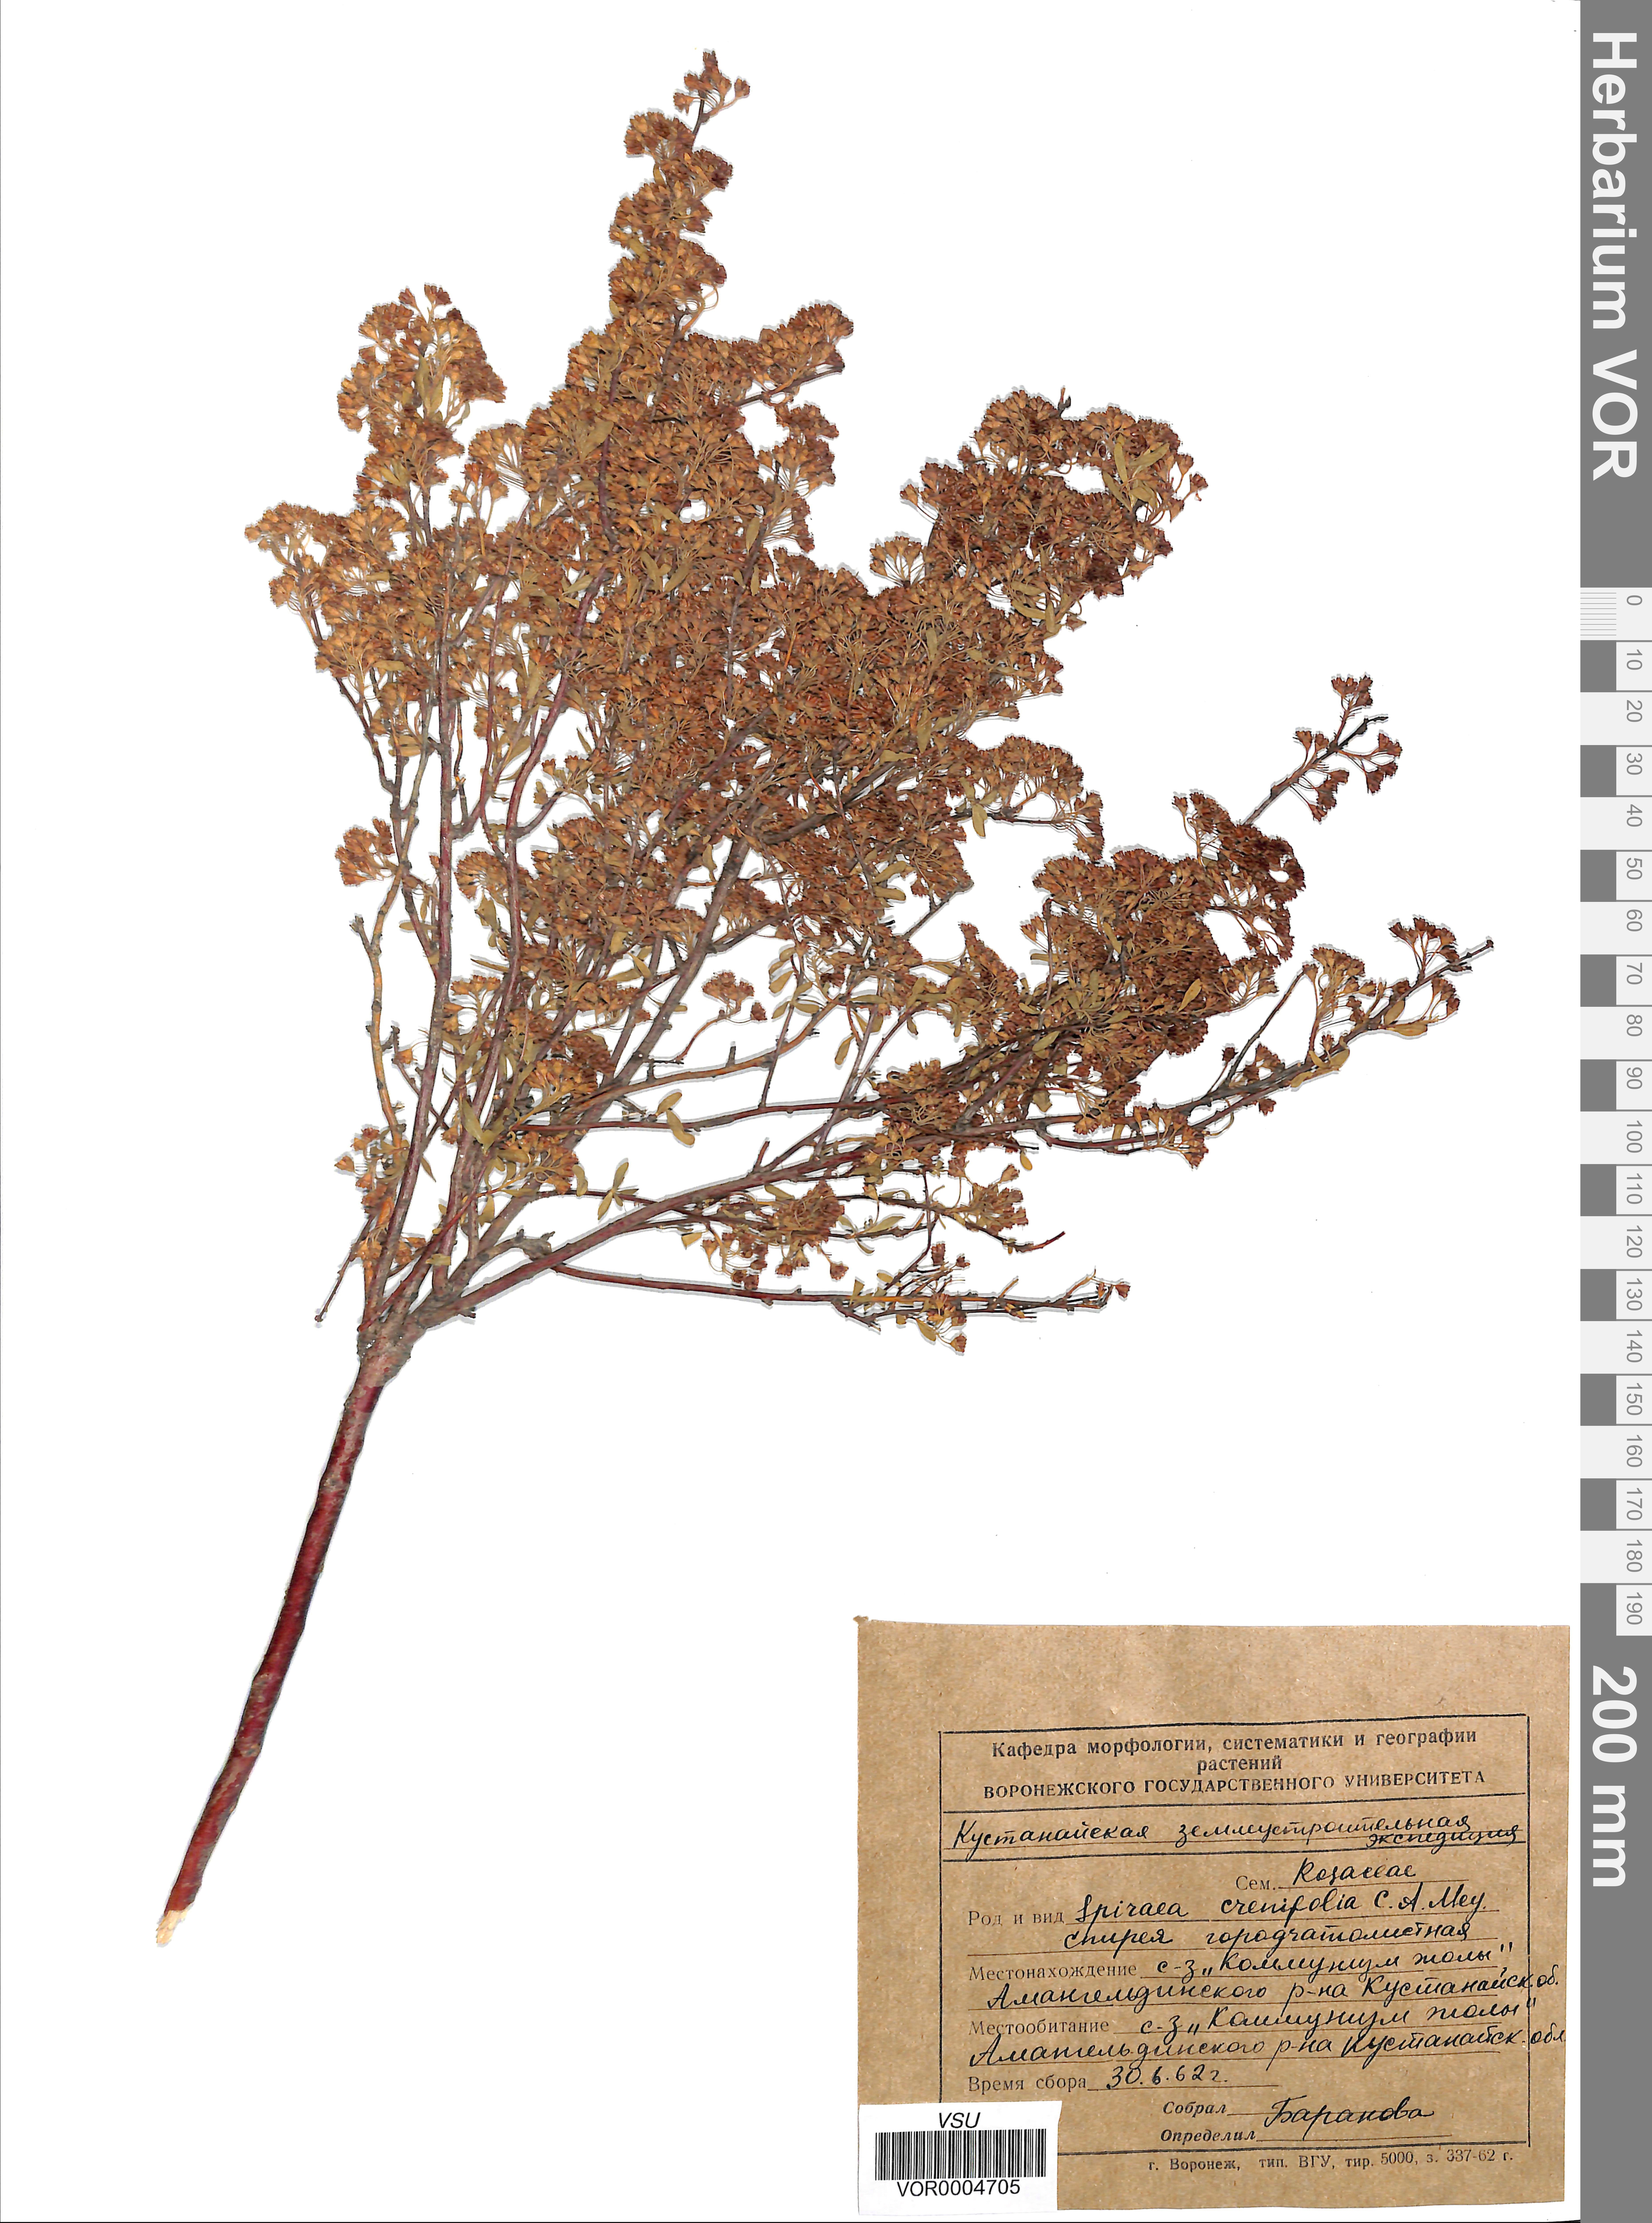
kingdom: Plantae
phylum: Tracheophyta
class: Magnoliopsida
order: Rosales
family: Rosaceae
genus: Spiraea
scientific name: Spiraea crenata
